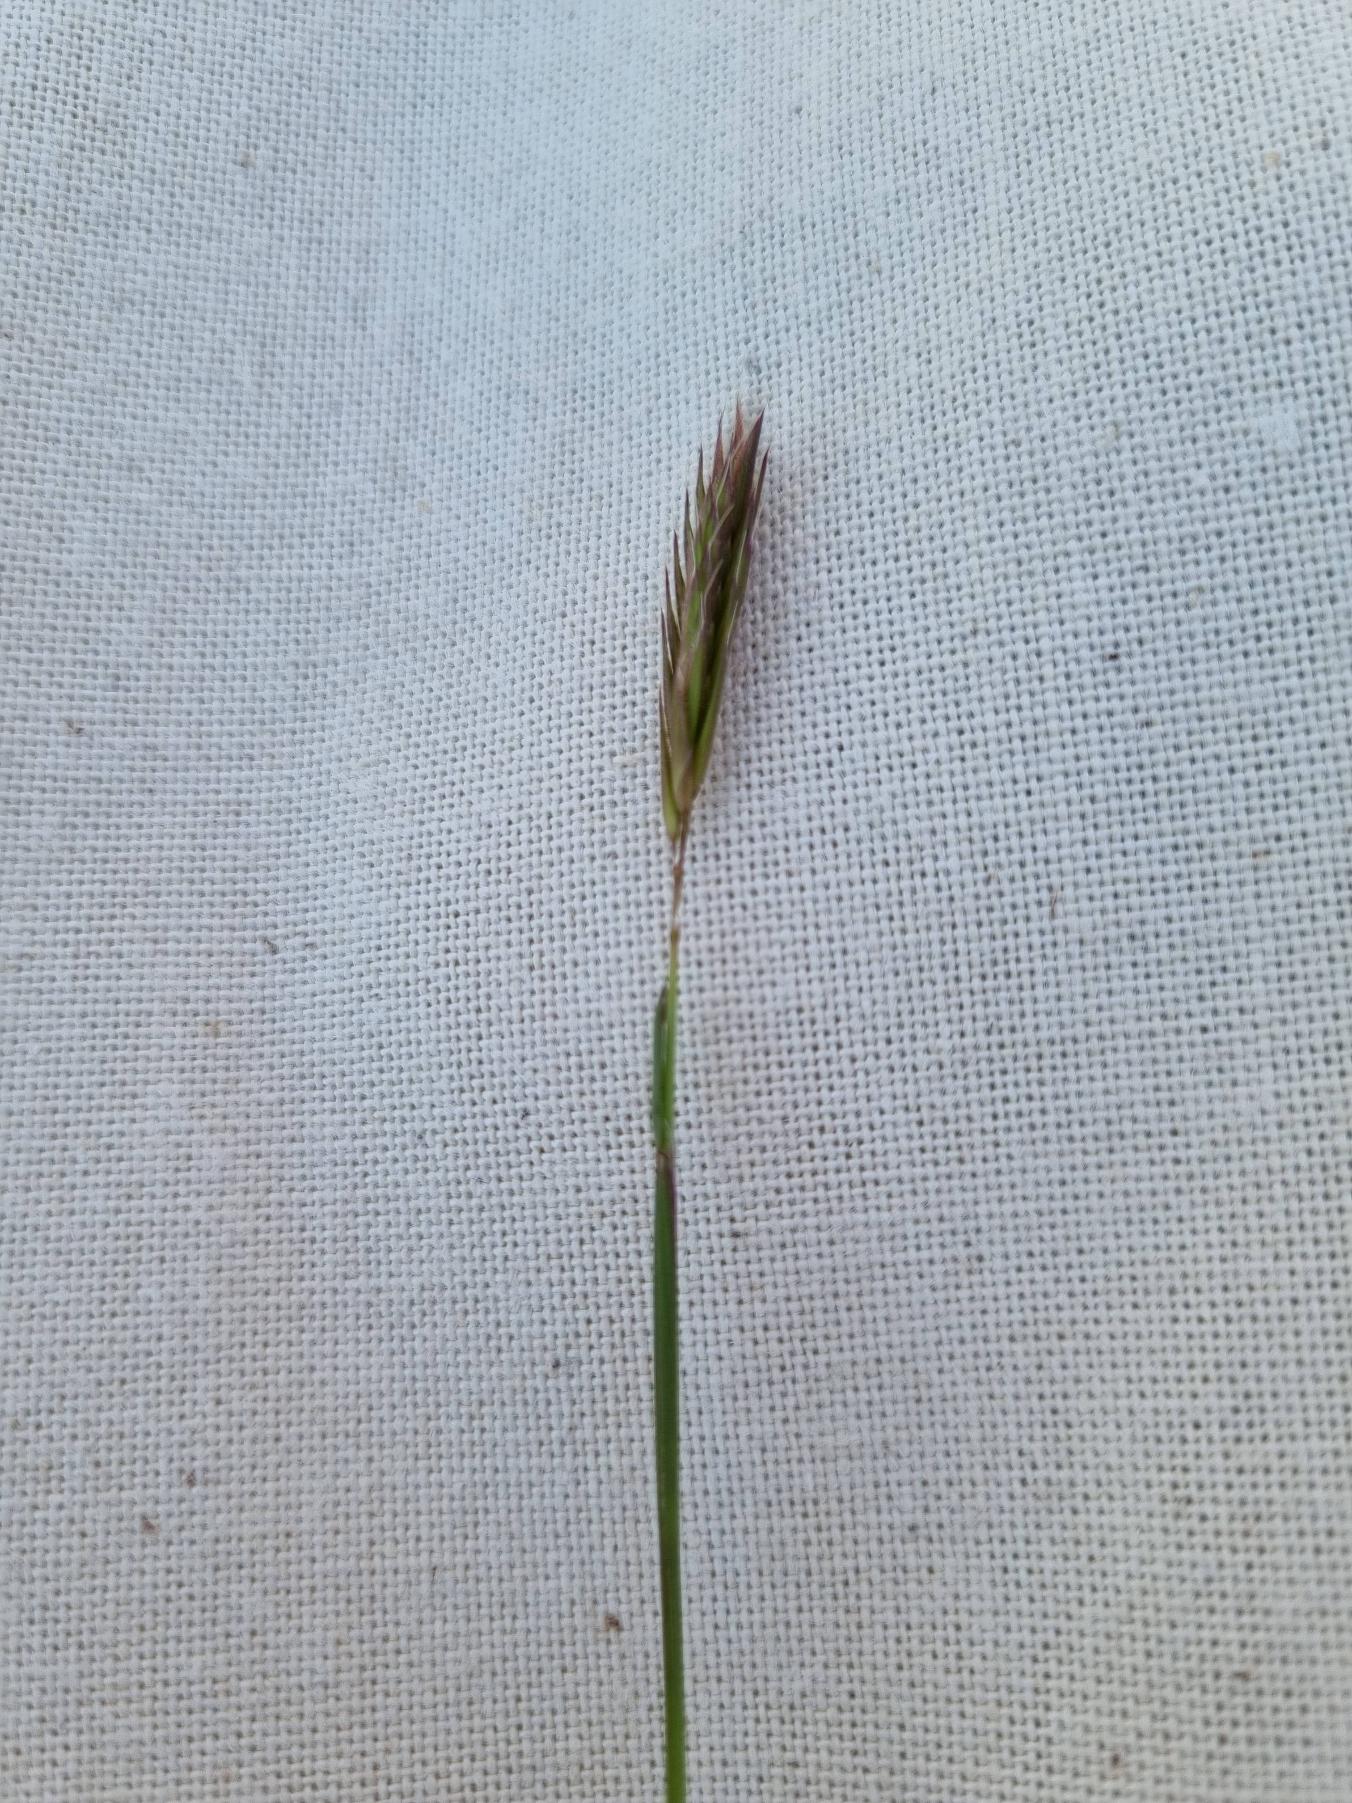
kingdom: Plantae
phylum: Tracheophyta
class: Liliopsida
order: Poales
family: Poaceae
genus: Anthoxanthum
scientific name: Anthoxanthum odoratum
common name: Vellugtende gulaks
